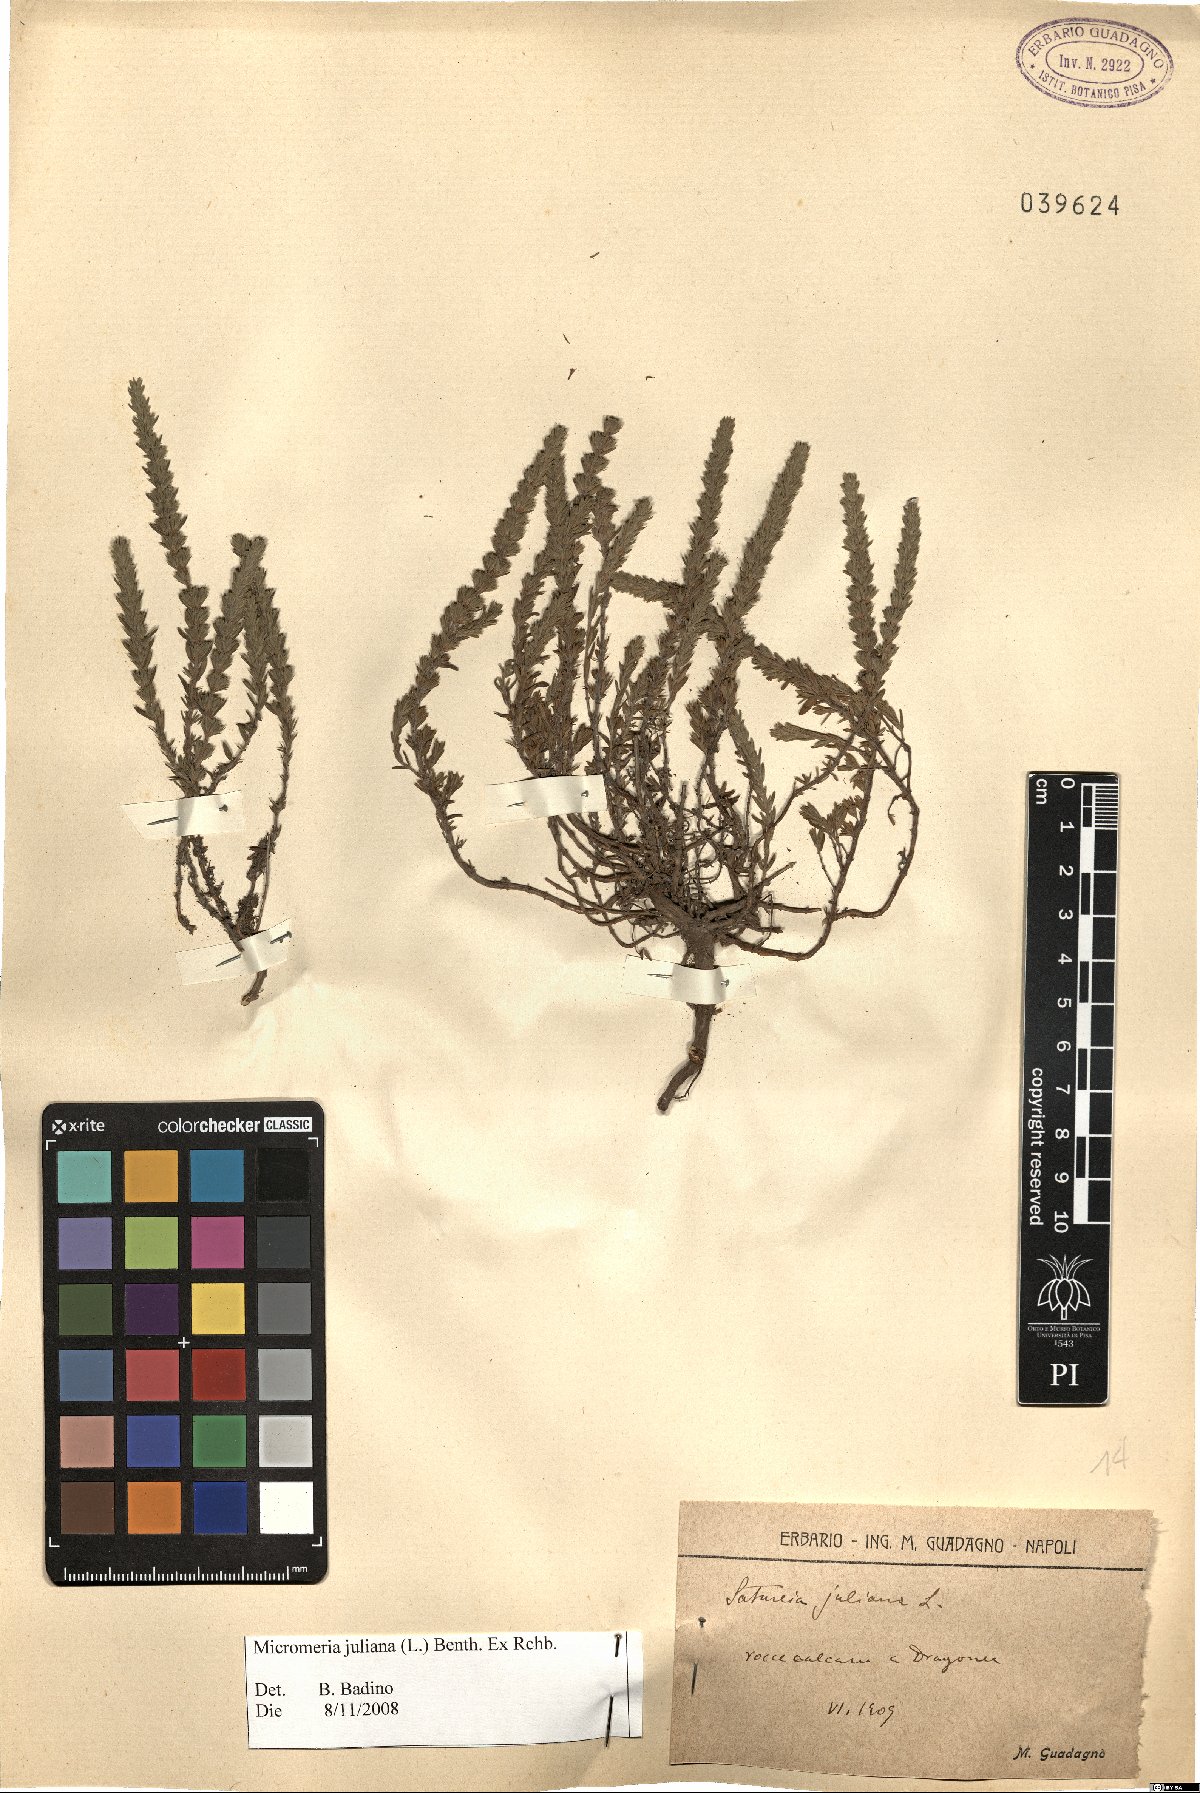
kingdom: Plantae
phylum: Tracheophyta
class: Magnoliopsida
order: Lamiales
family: Lamiaceae
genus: Micromeria
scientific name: Micromeria juliana
